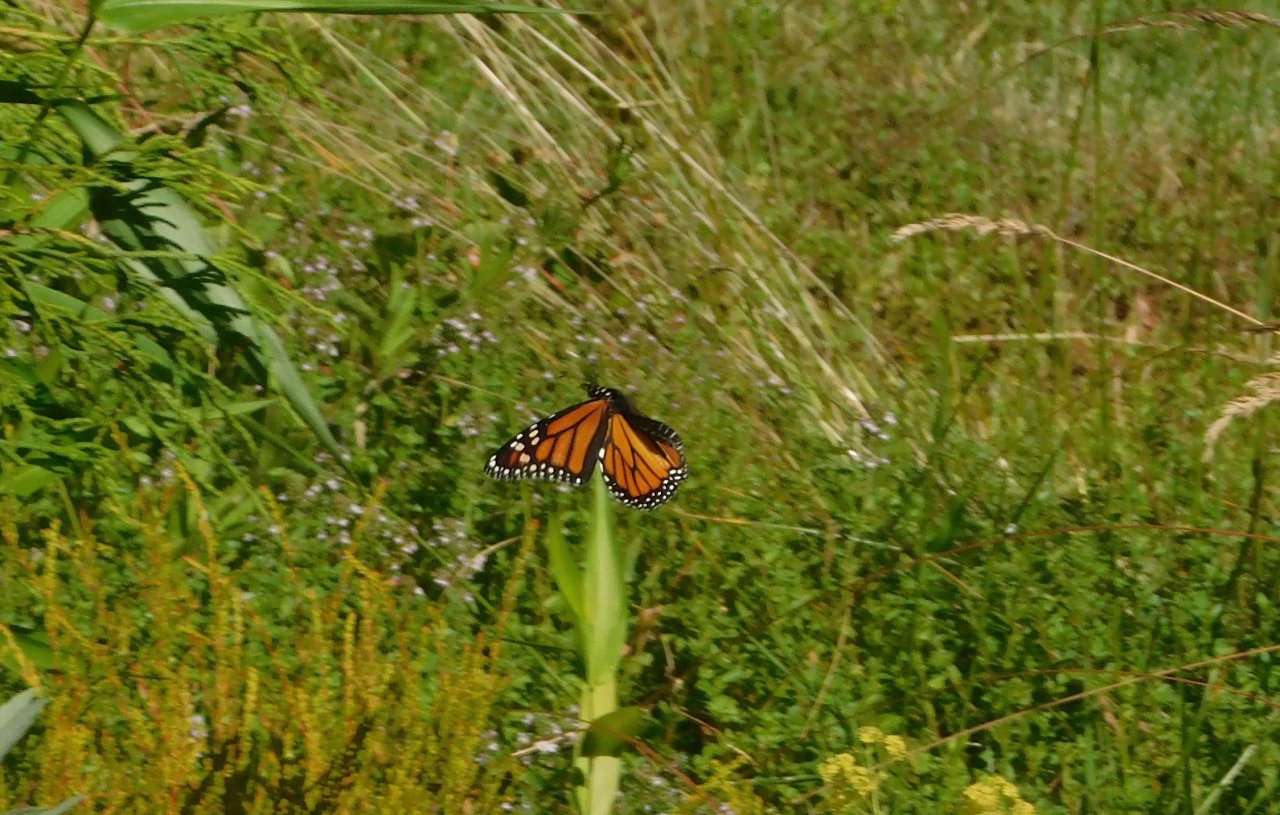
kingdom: Animalia
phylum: Arthropoda
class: Insecta
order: Lepidoptera
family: Nymphalidae
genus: Danaus
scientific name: Danaus plexippus
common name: Monarch
